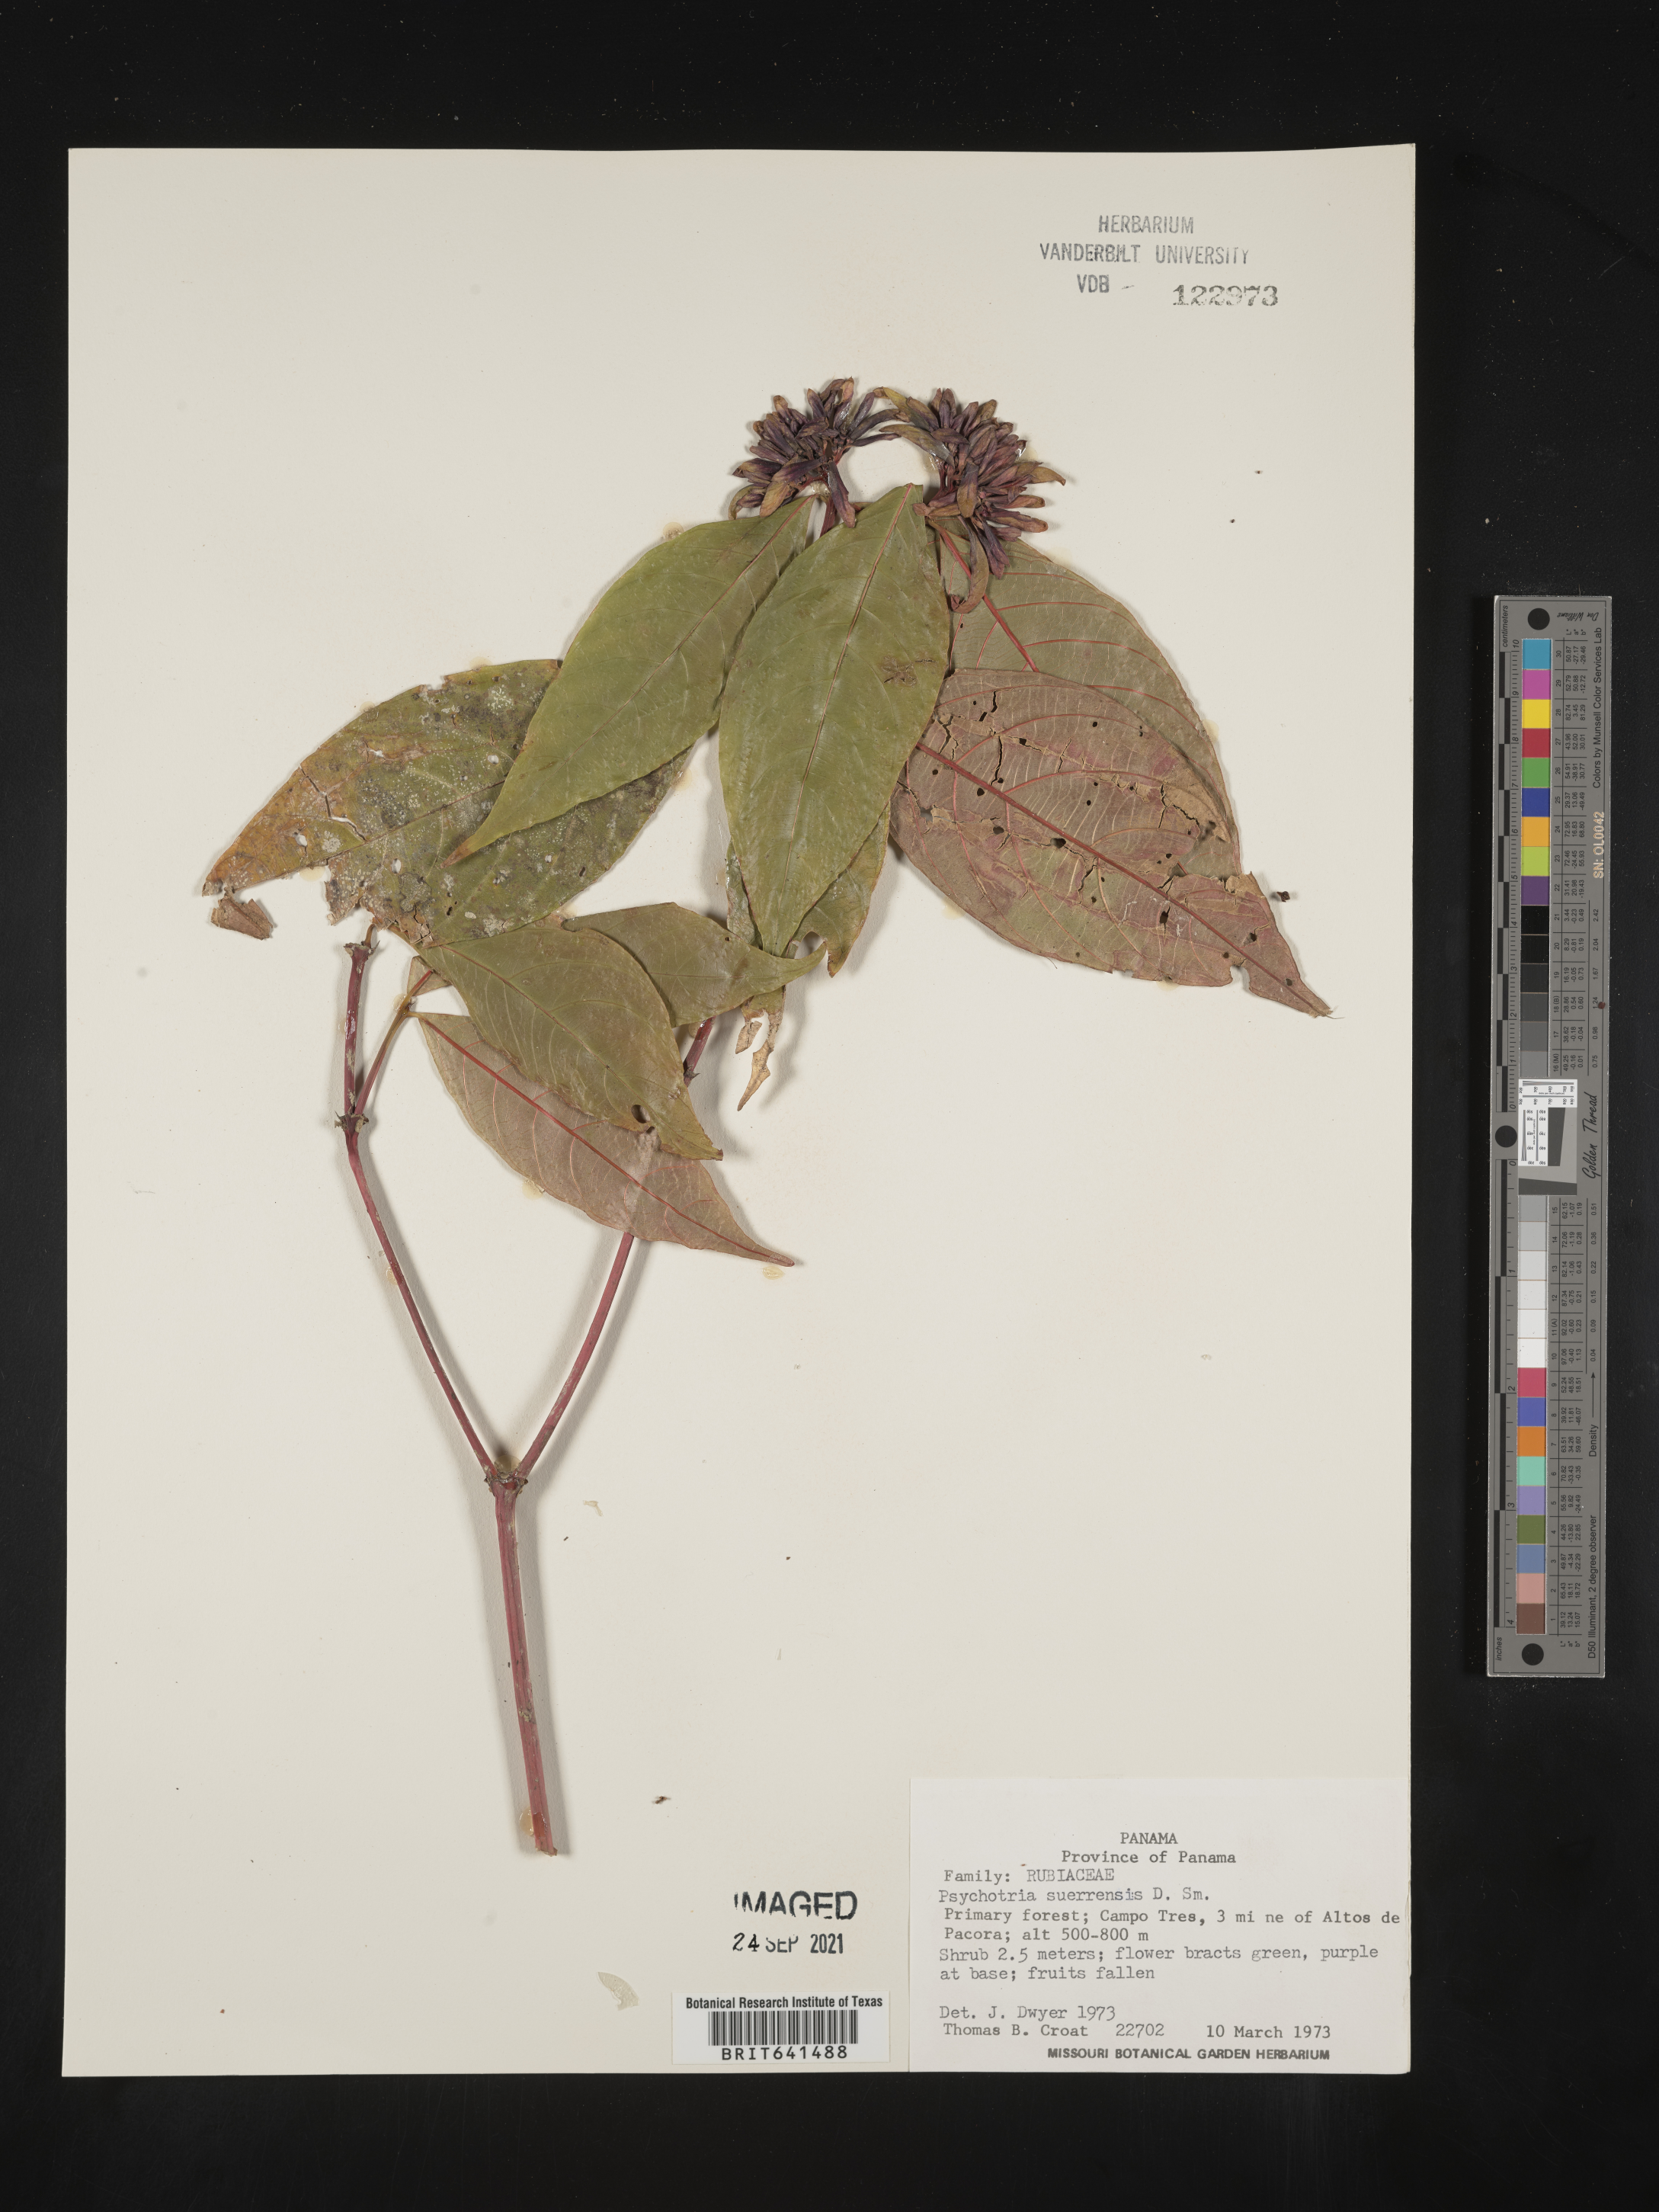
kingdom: Plantae
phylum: Tracheophyta
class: Magnoliopsida
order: Gentianales
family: Rubiaceae
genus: Psychotria
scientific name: Psychotria
